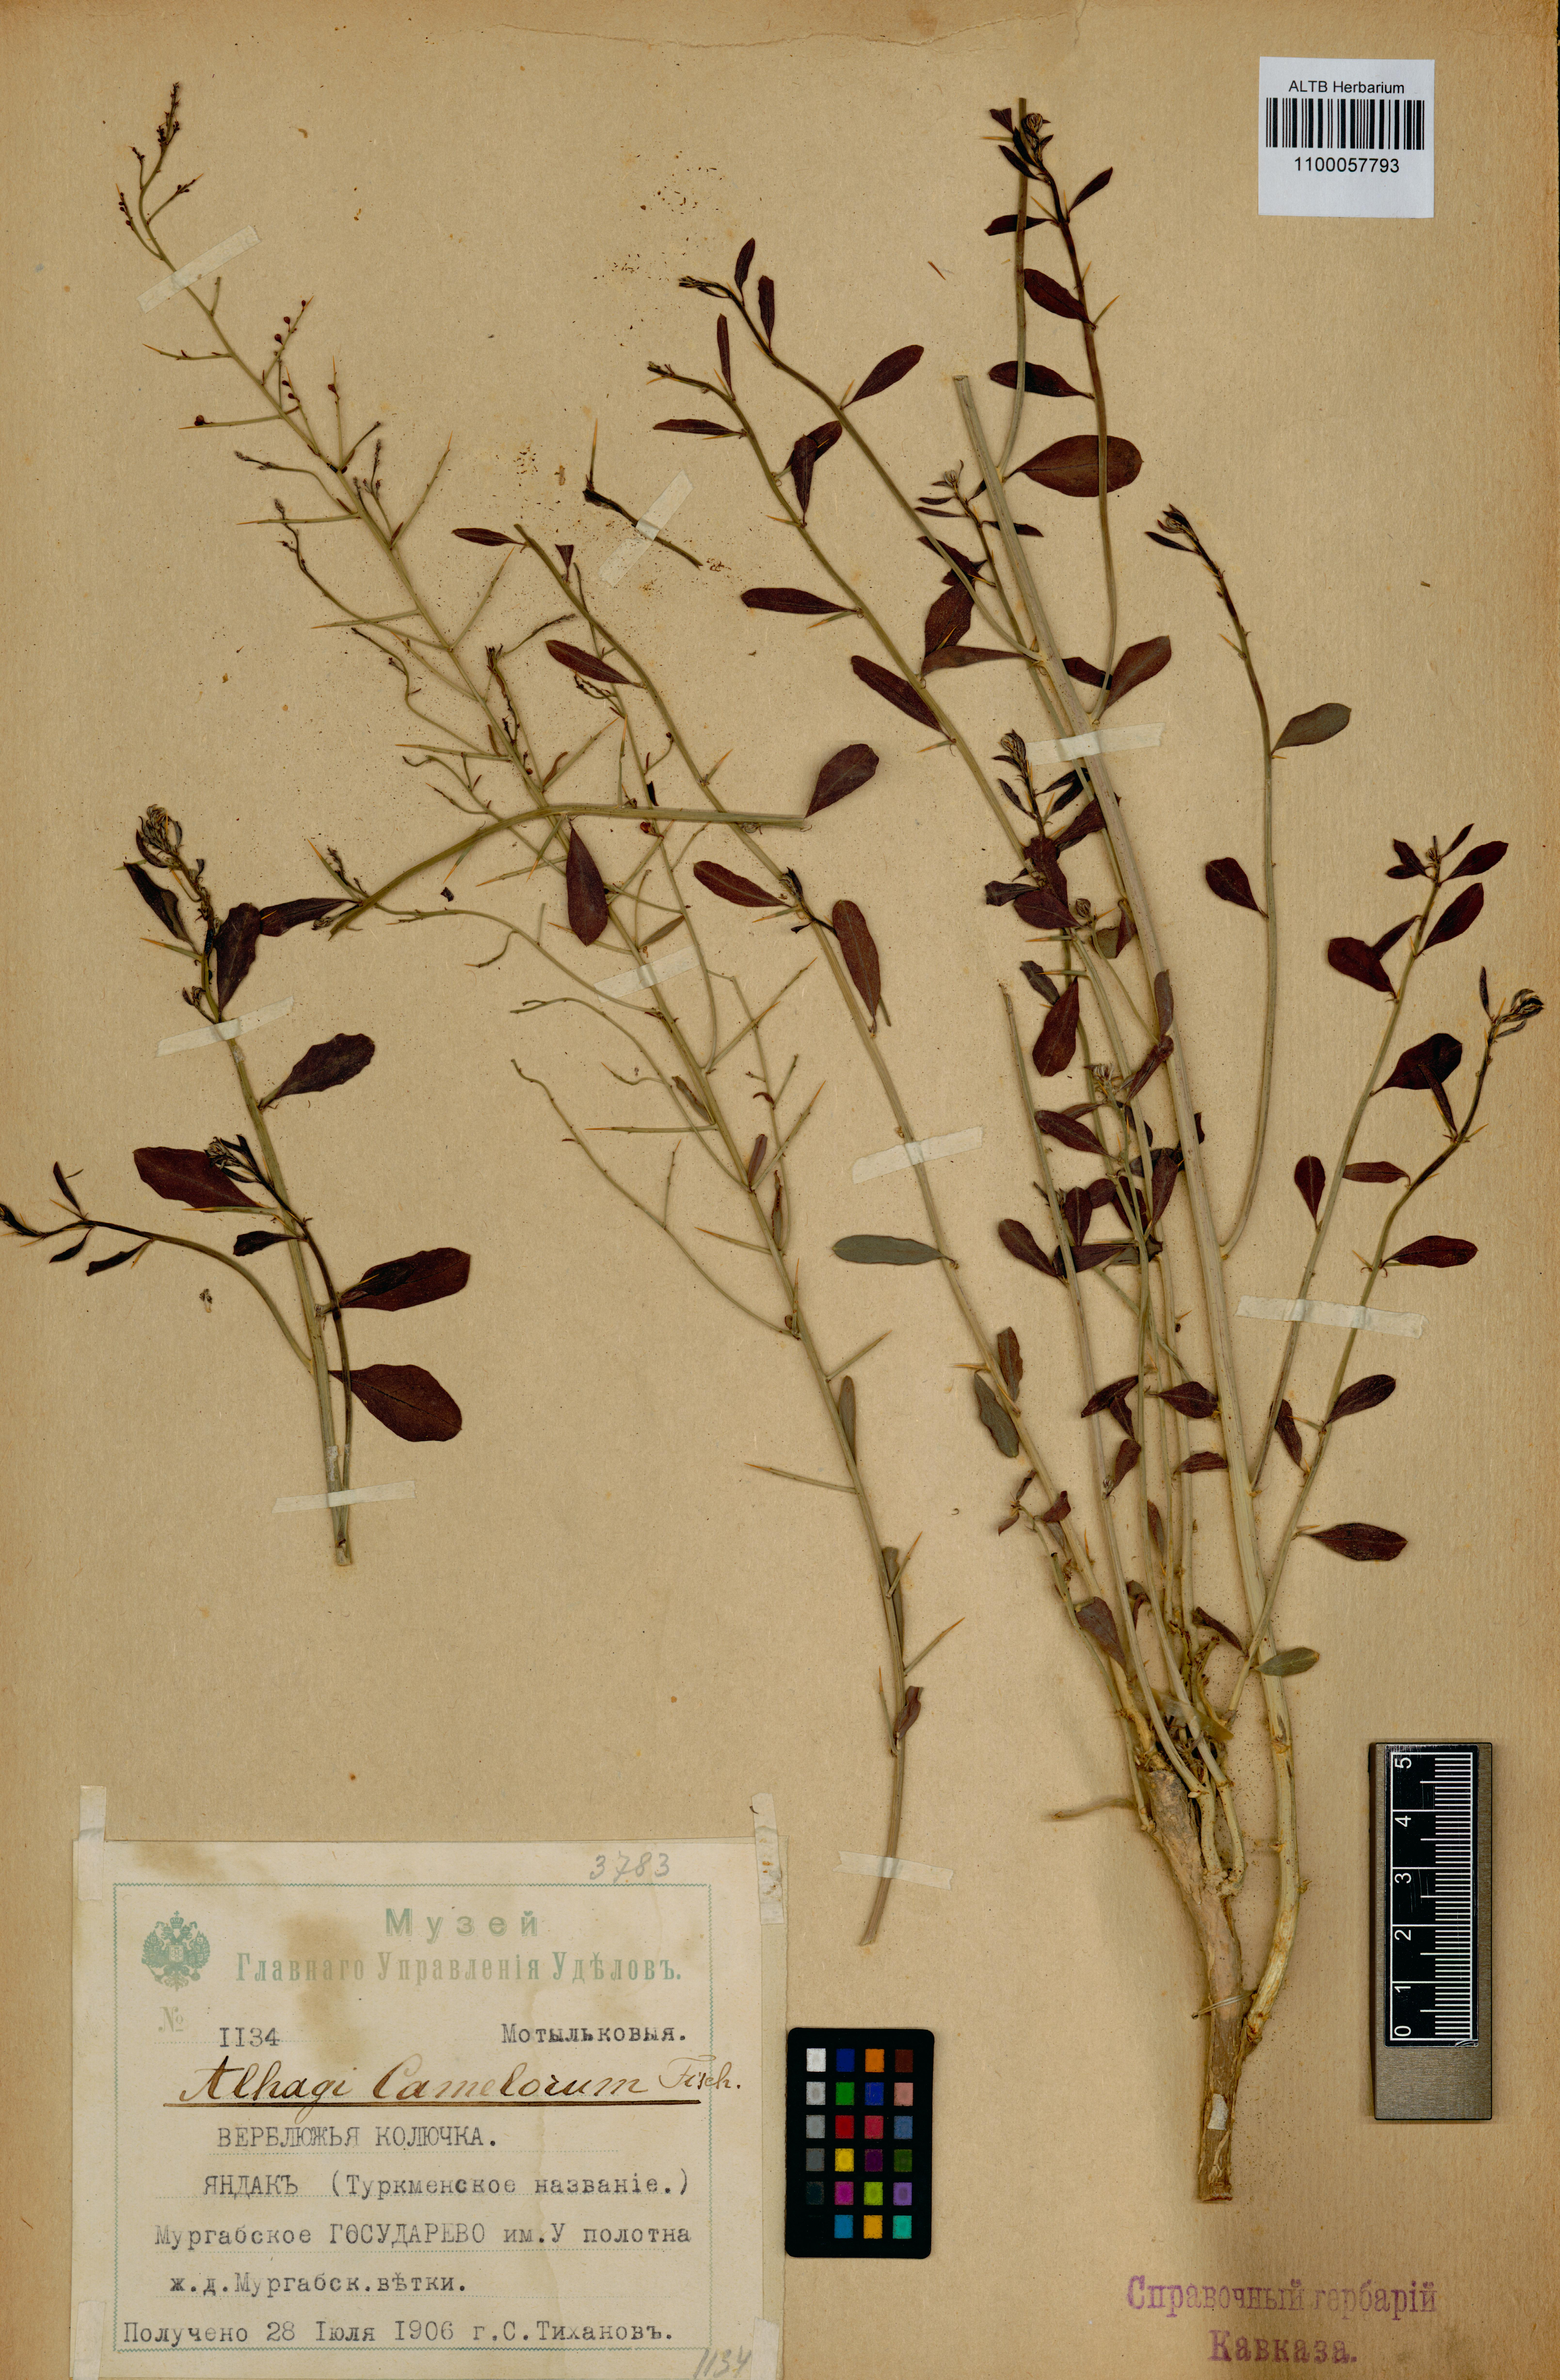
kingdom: Plantae
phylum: Tracheophyta
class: Magnoliopsida
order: Fabales
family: Fabaceae
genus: Alhagi
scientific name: Alhagi maurorum
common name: Camelthorn
